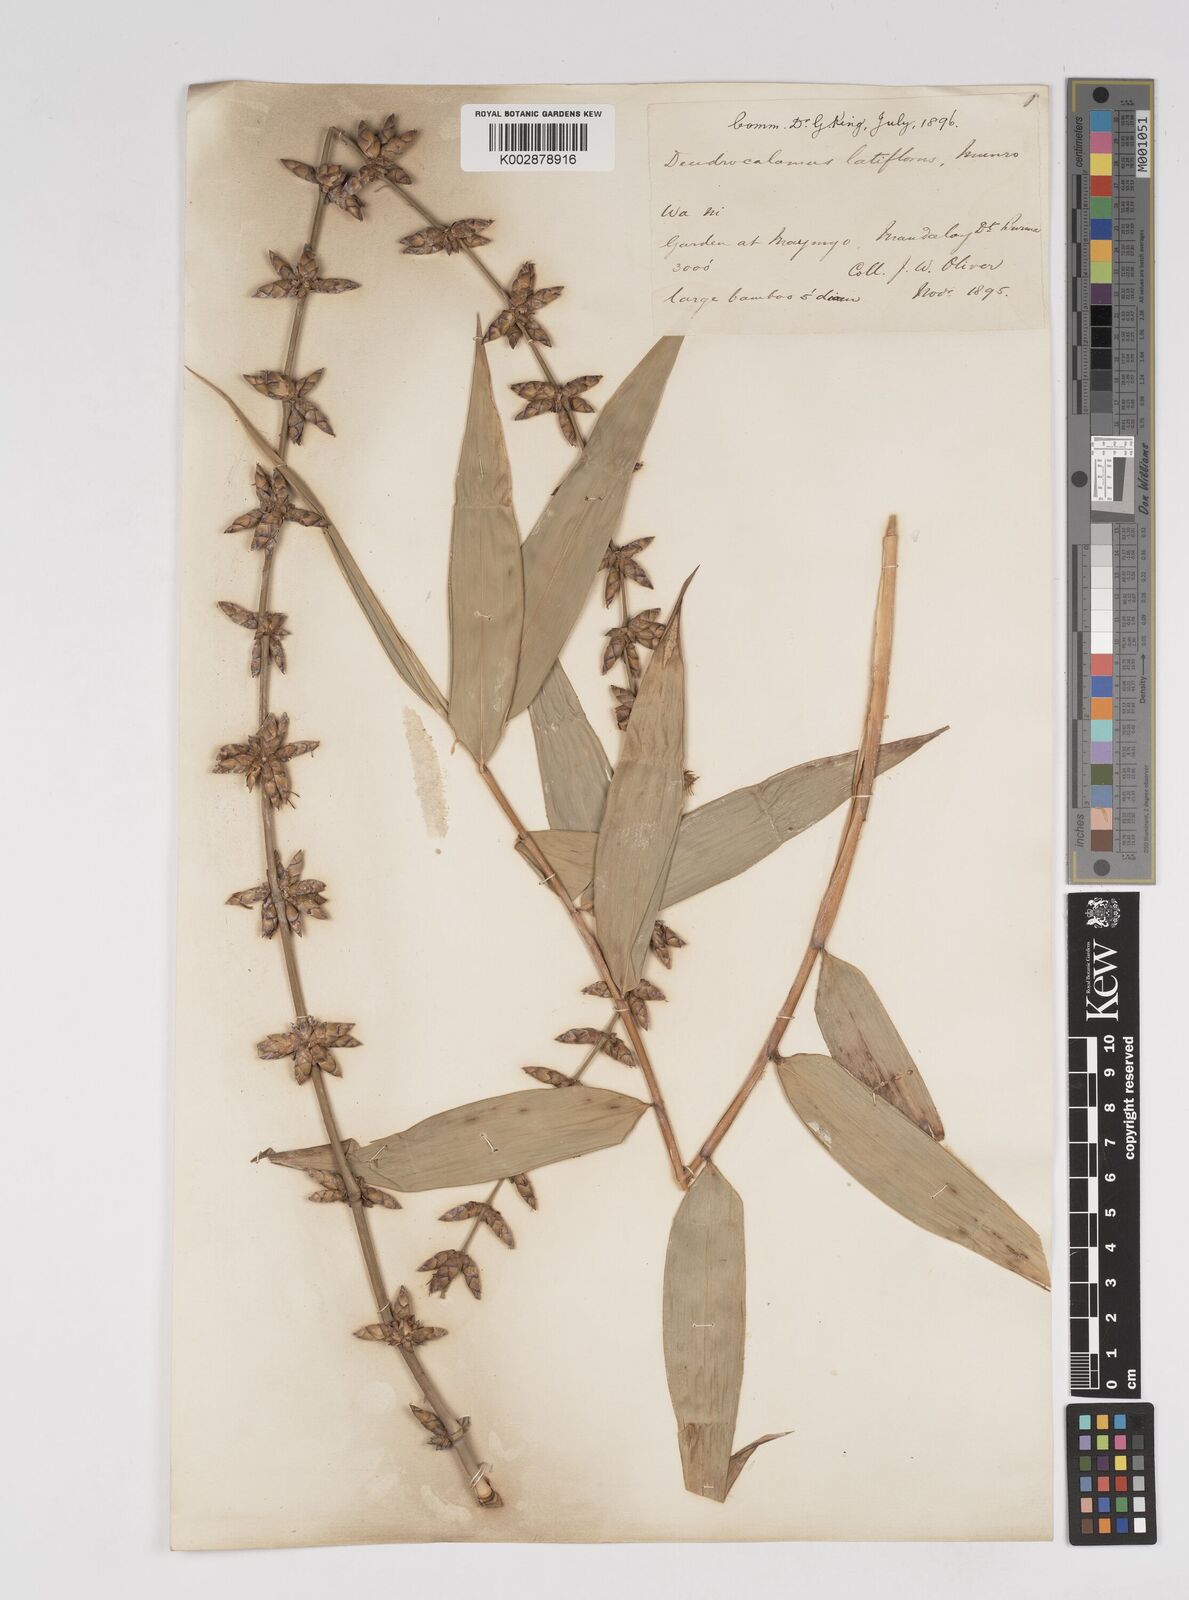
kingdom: Plantae
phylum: Tracheophyta
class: Liliopsida
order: Poales
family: Poaceae
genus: Dendrocalamus
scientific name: Dendrocalamus latiflorus
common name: Giant bamboo
